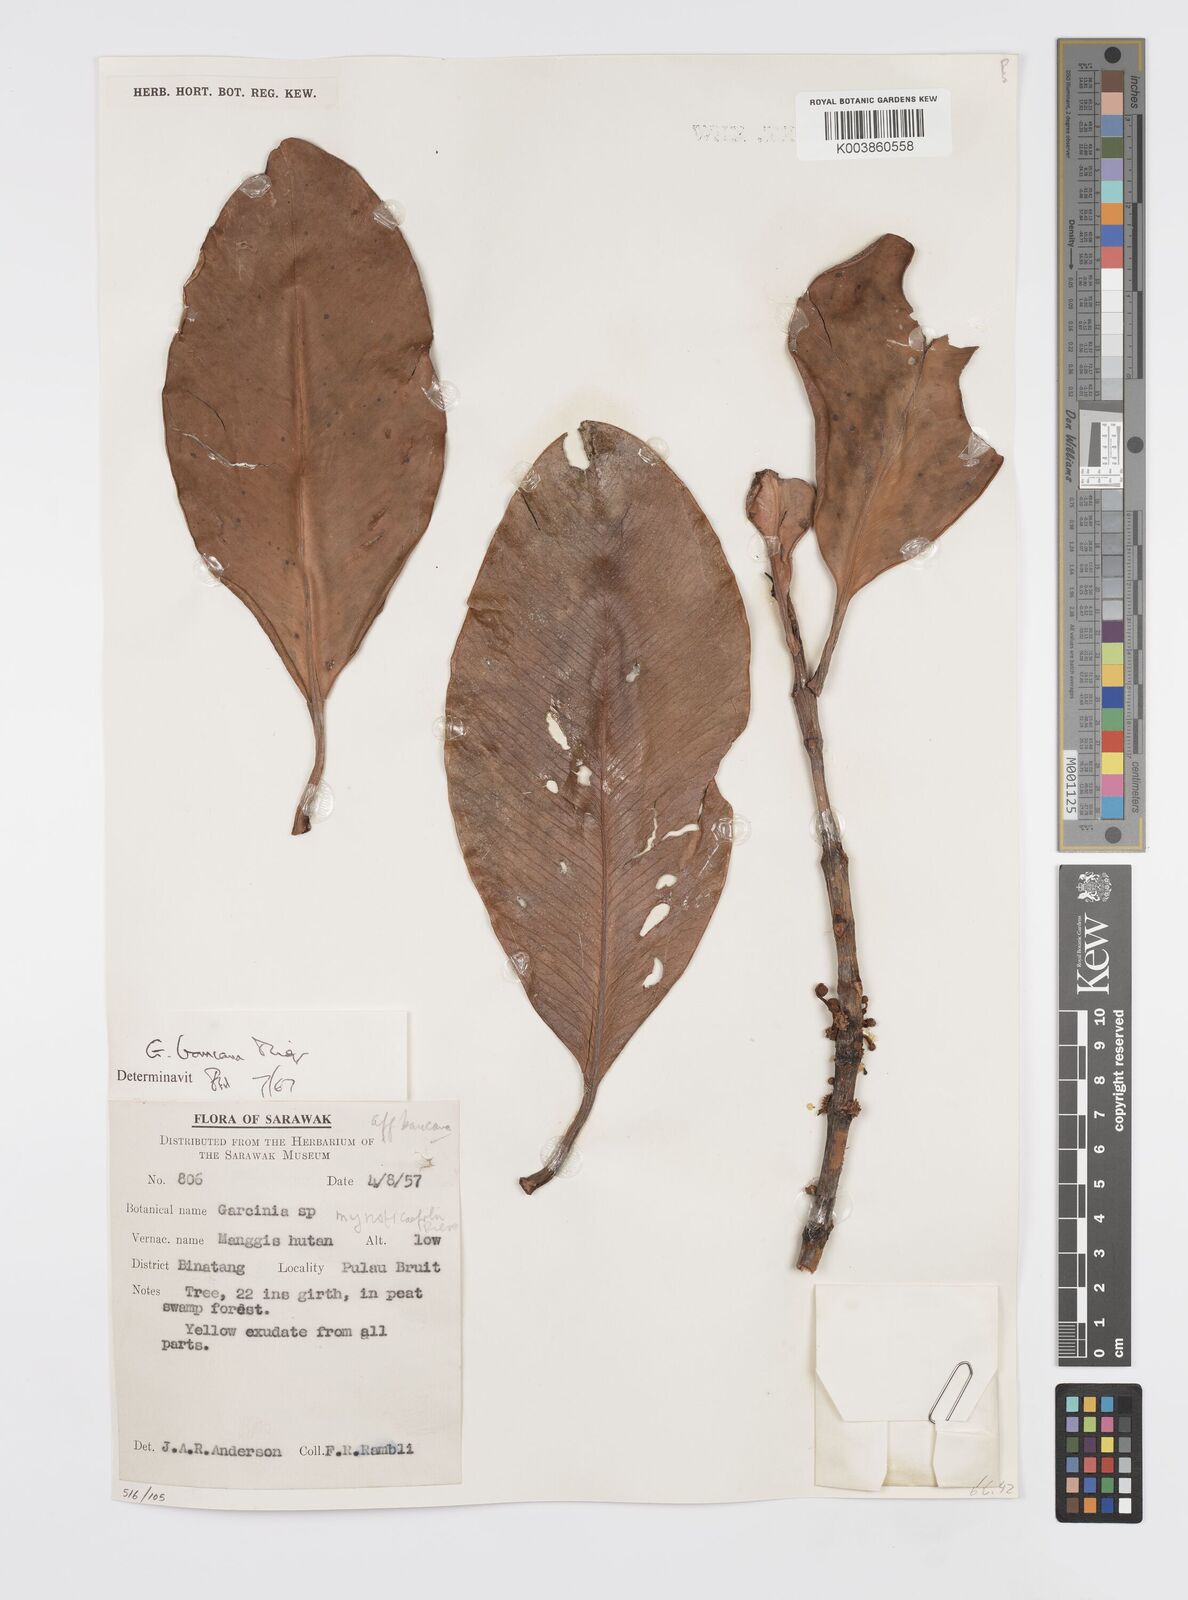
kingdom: Plantae
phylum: Tracheophyta
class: Magnoliopsida
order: Malpighiales
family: Clusiaceae
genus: Garcinia
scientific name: Garcinia bancana
